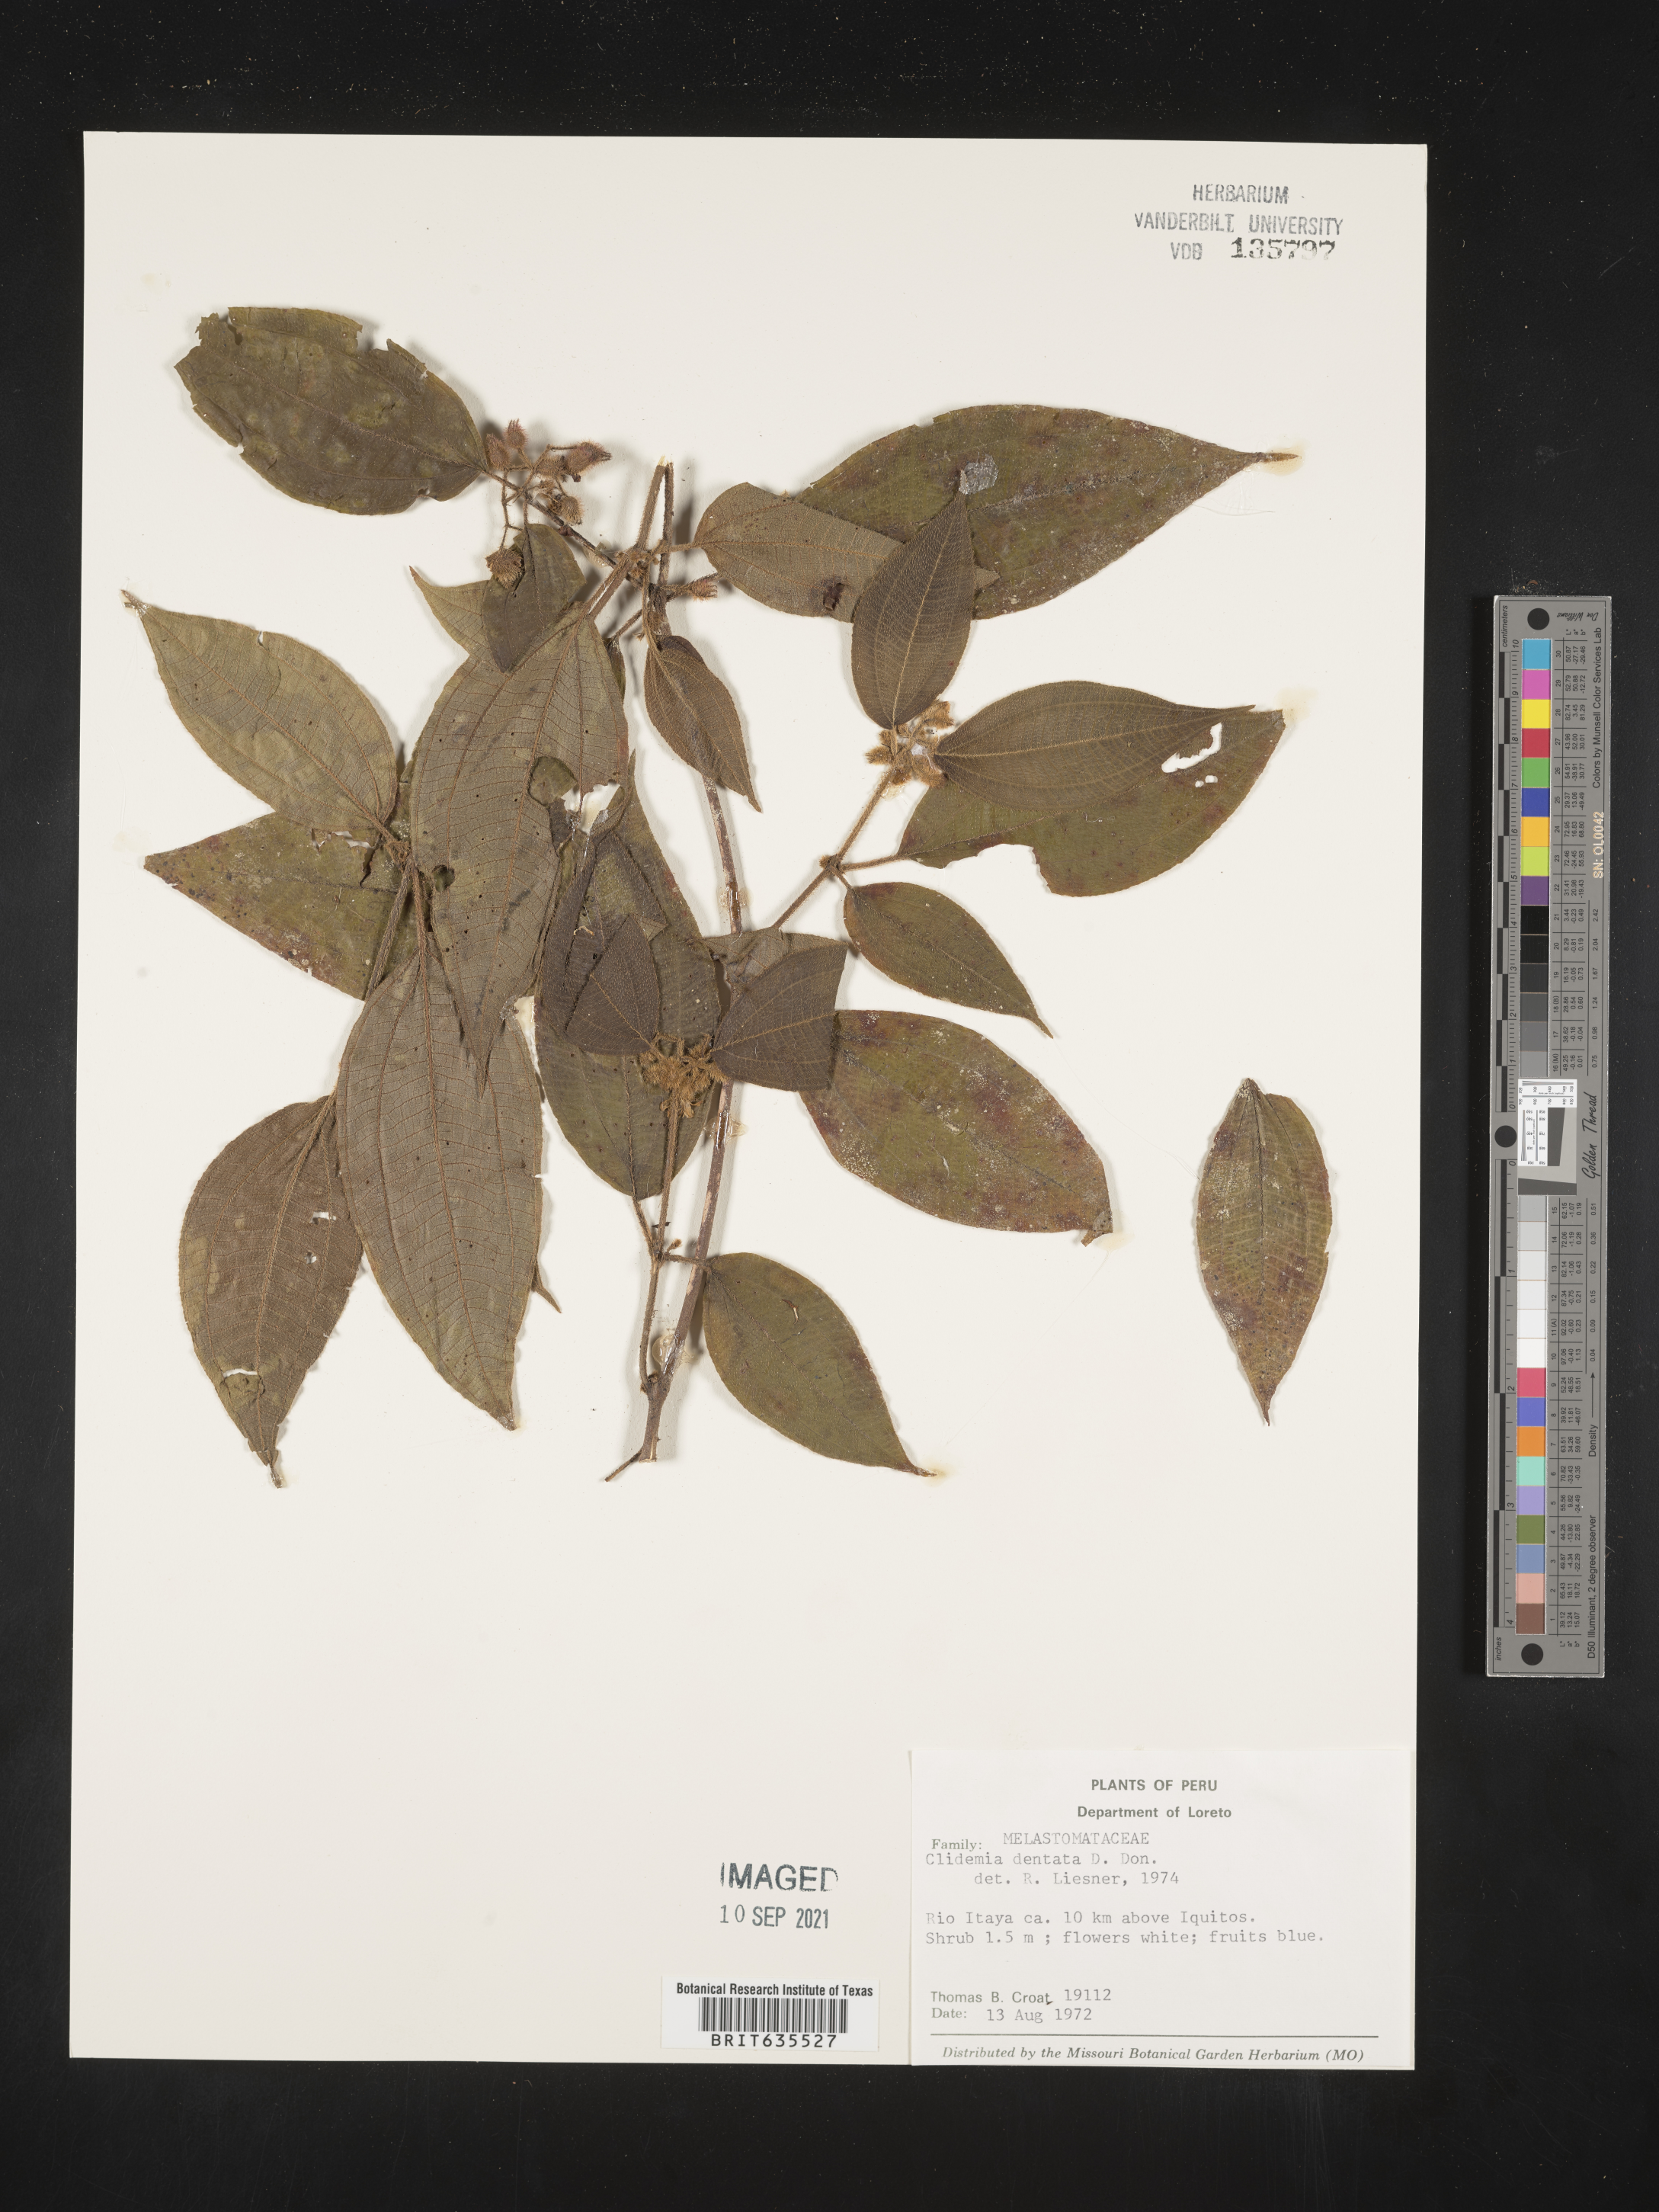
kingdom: Plantae
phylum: Tracheophyta
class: Magnoliopsida
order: Myrtales
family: Melastomataceae
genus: Miconia
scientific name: Miconia
